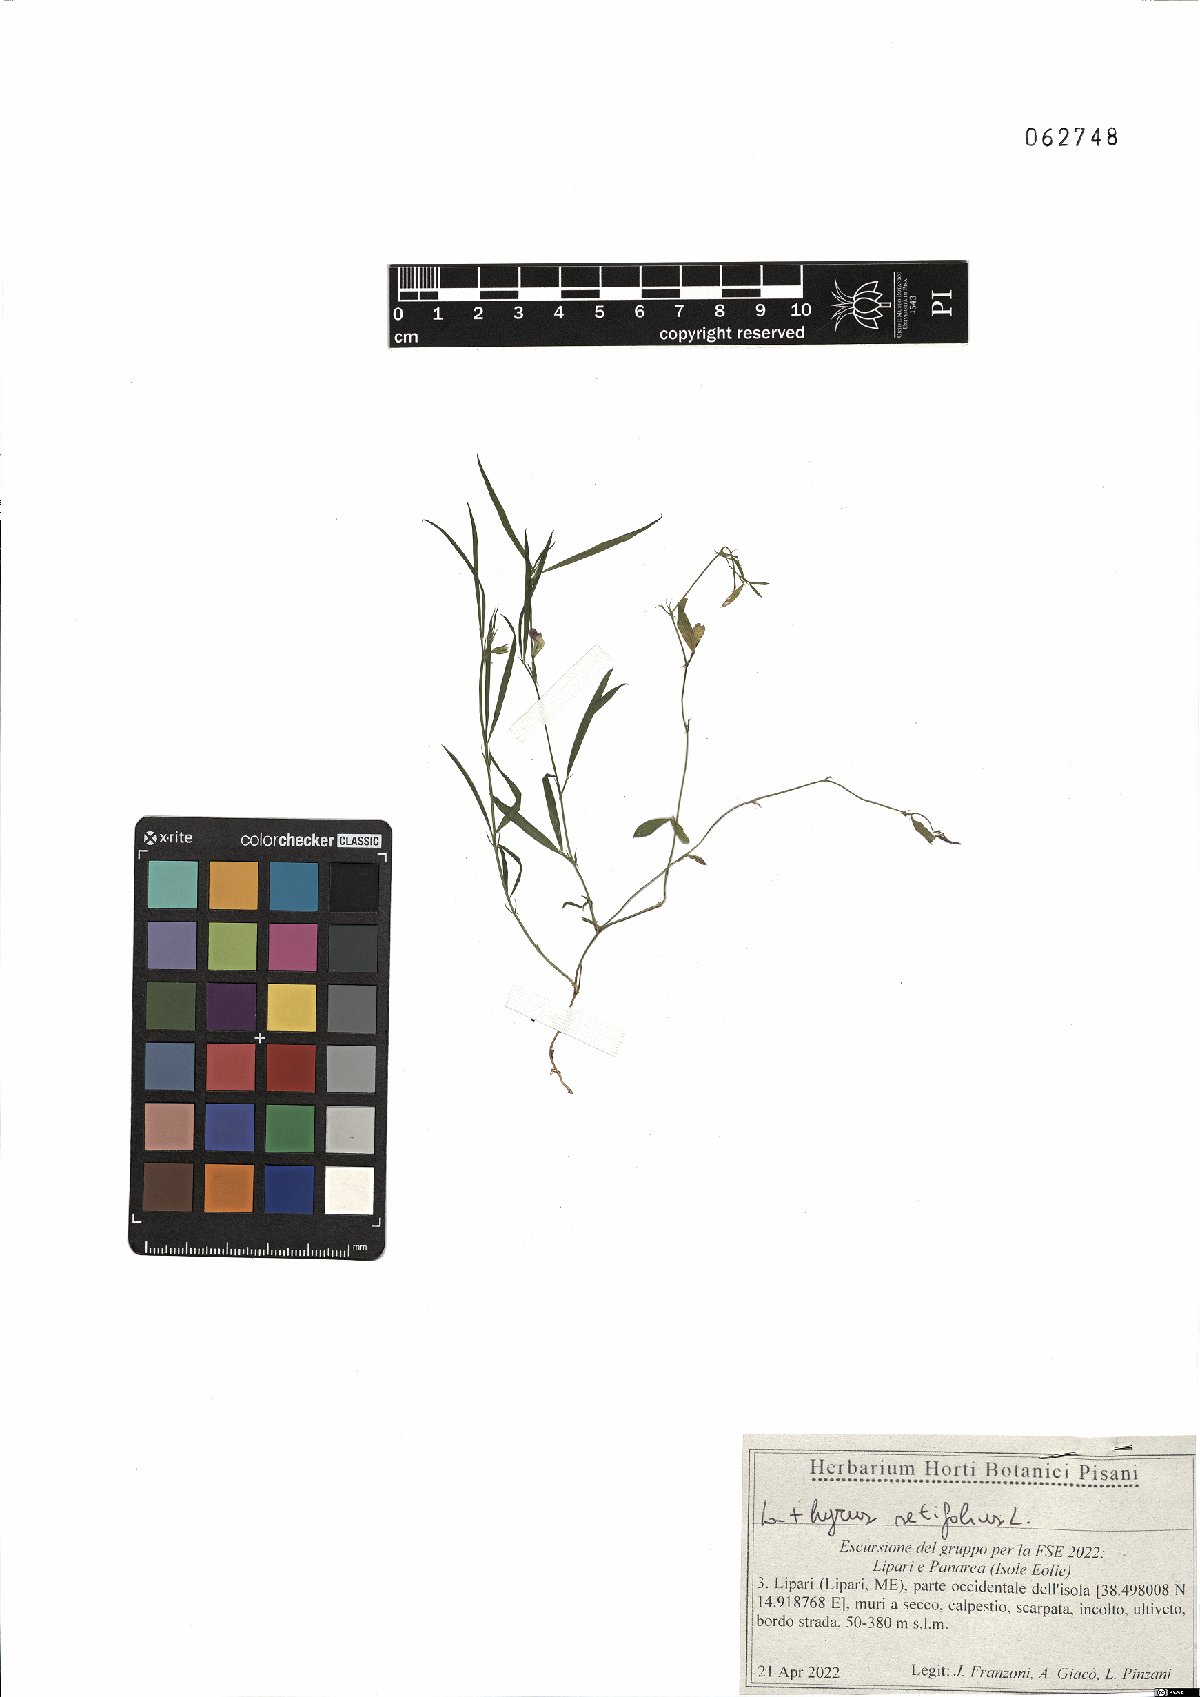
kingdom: Plantae
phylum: Tracheophyta
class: Magnoliopsida
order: Fabales
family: Fabaceae
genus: Lathyrus
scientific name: Lathyrus setifolius
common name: Brown vetchling
